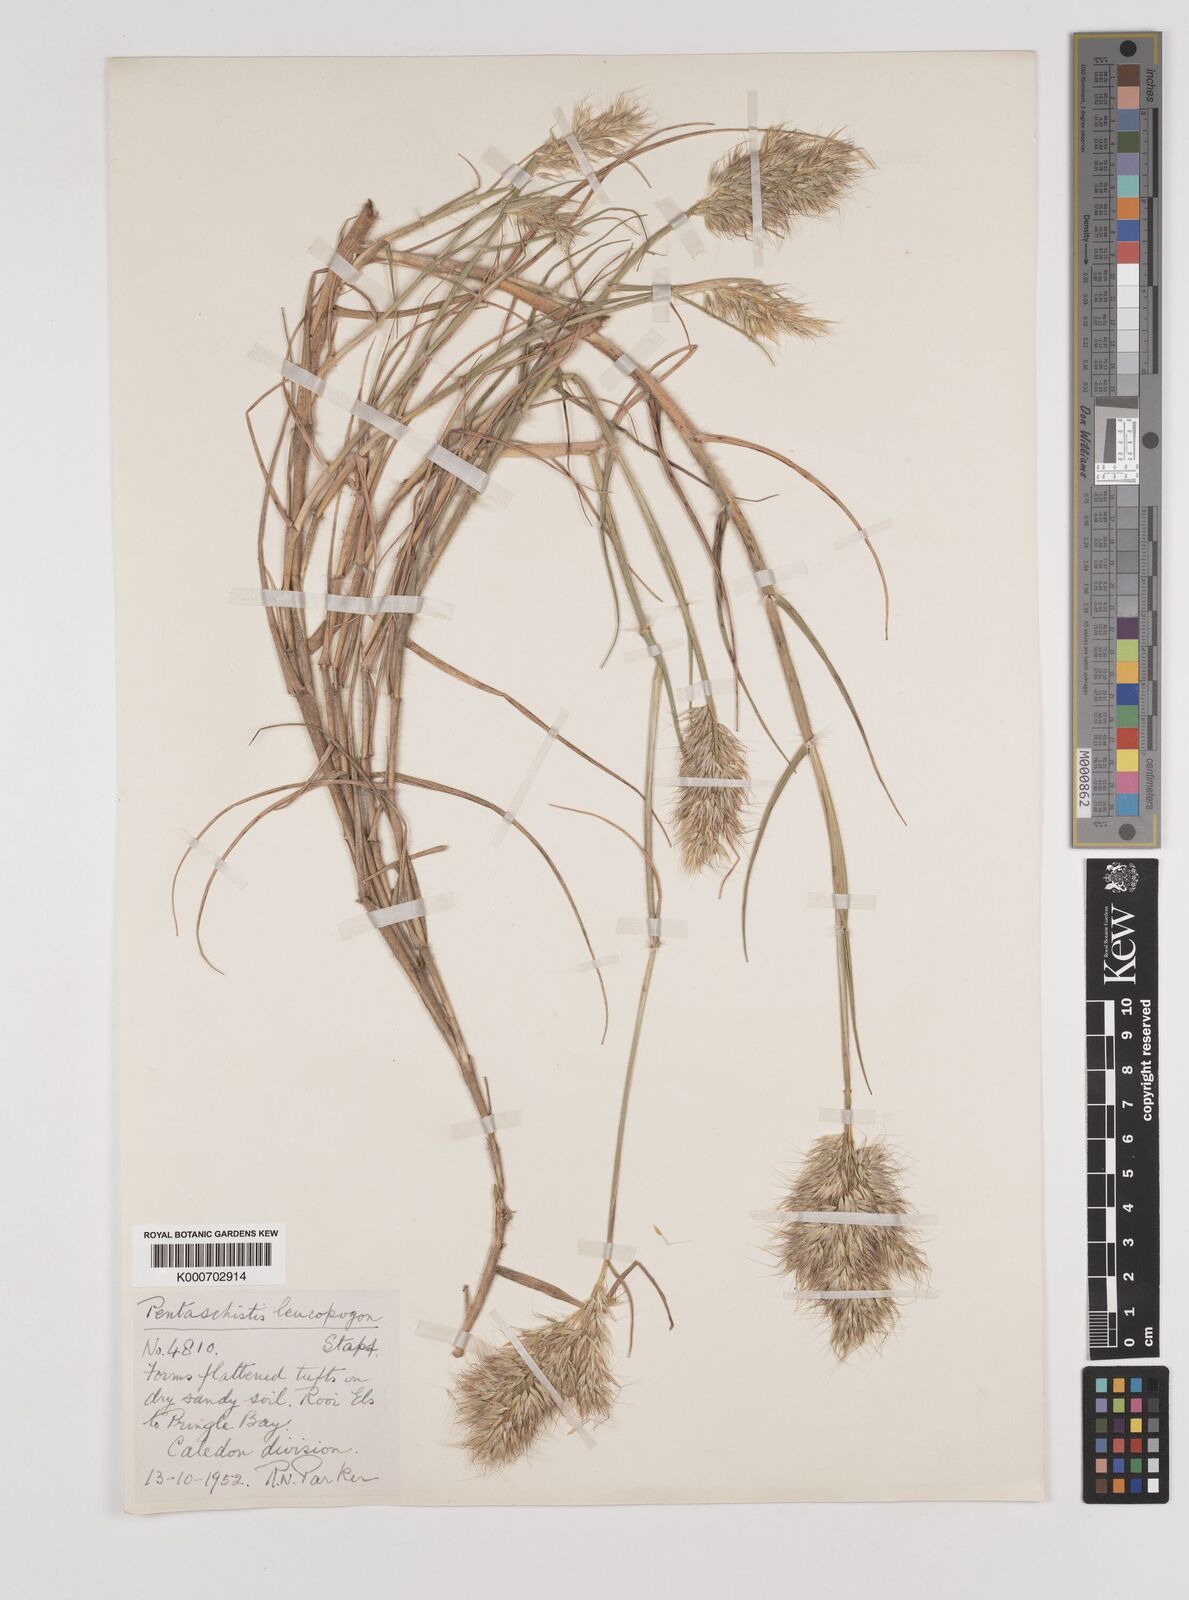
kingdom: Plantae
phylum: Tracheophyta
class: Liliopsida
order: Poales
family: Poaceae
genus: Pentameris
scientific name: Pentameris barbata
